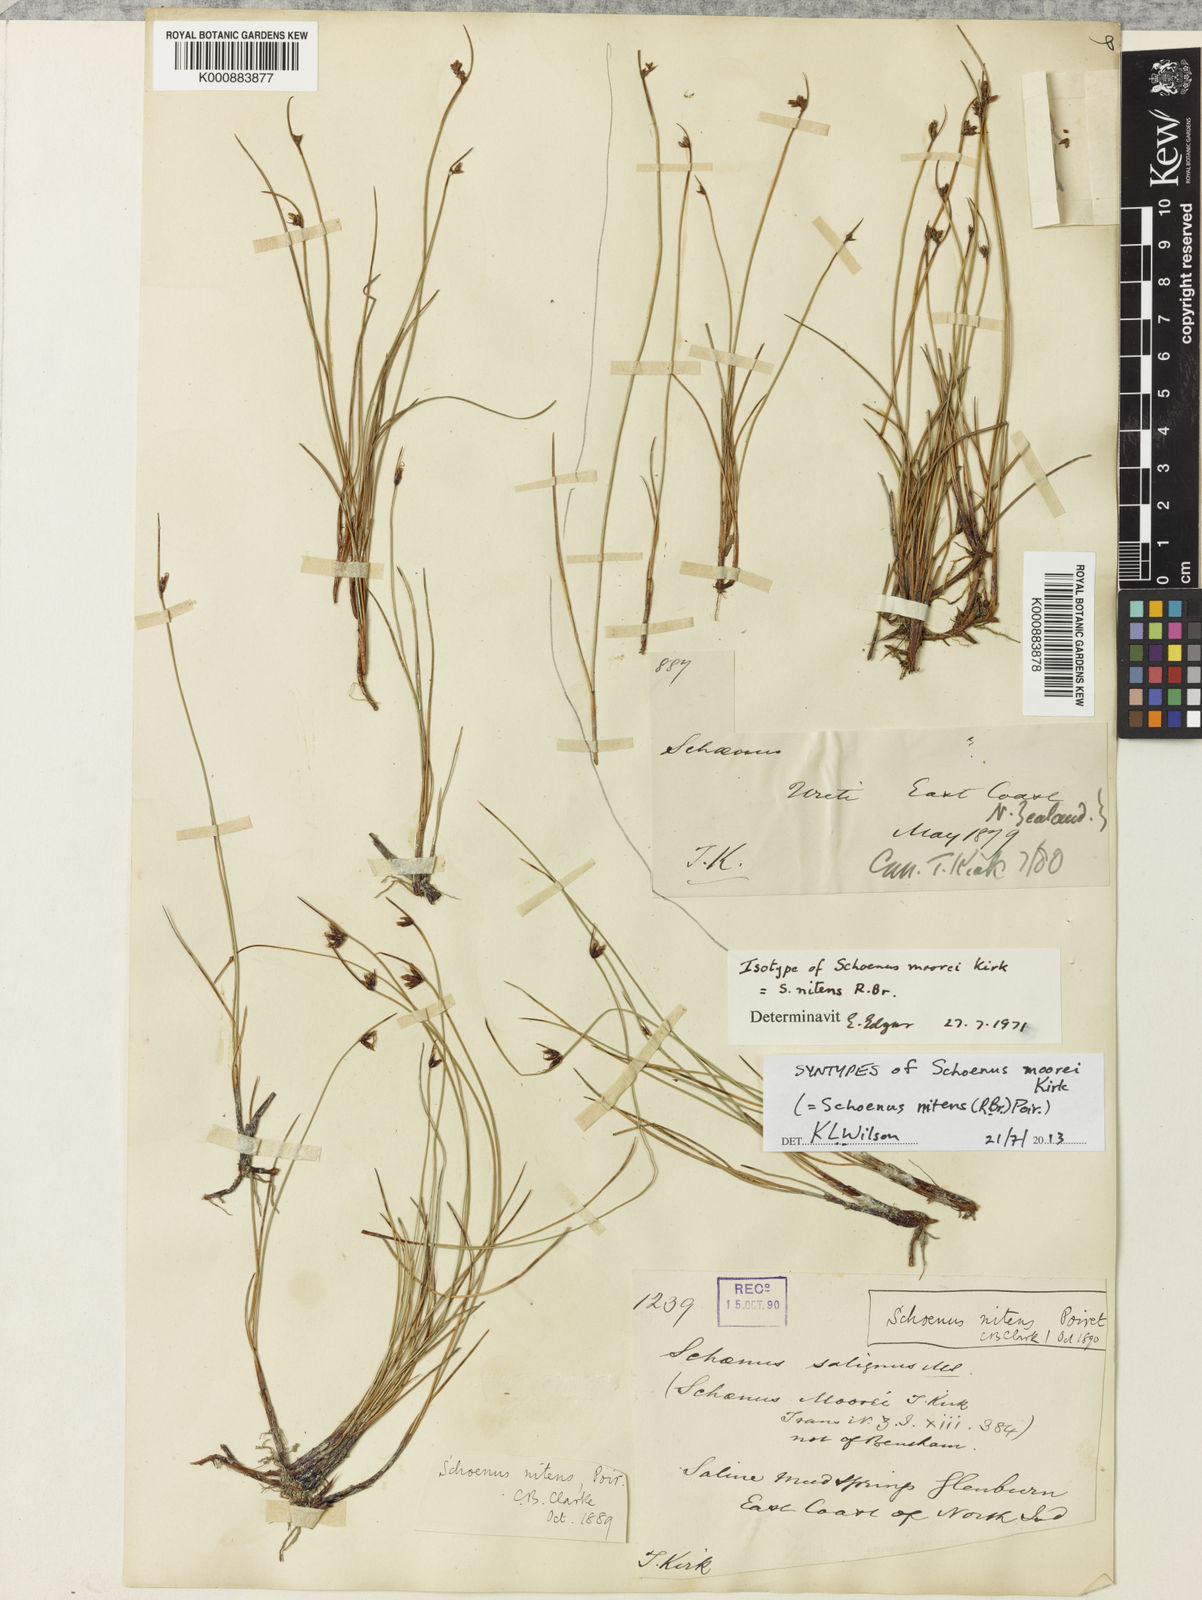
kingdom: Plantae
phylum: Tracheophyta
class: Liliopsida
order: Poales
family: Cyperaceae
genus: Schoenus
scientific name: Schoenus
